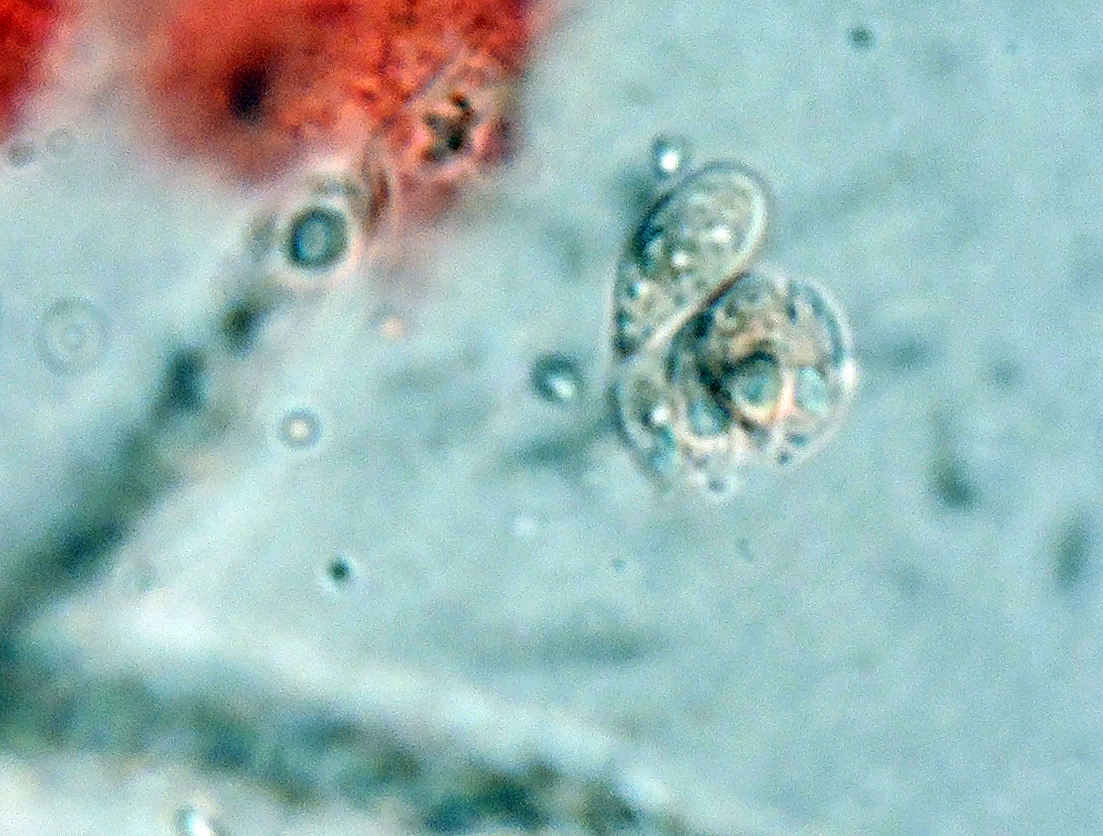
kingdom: Fungi
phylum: Basidiomycota
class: Agaricomycetes
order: Agaricales
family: Niaceae
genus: Flagelloscypha
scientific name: Flagelloscypha pilatii
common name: græs-hængeskål
